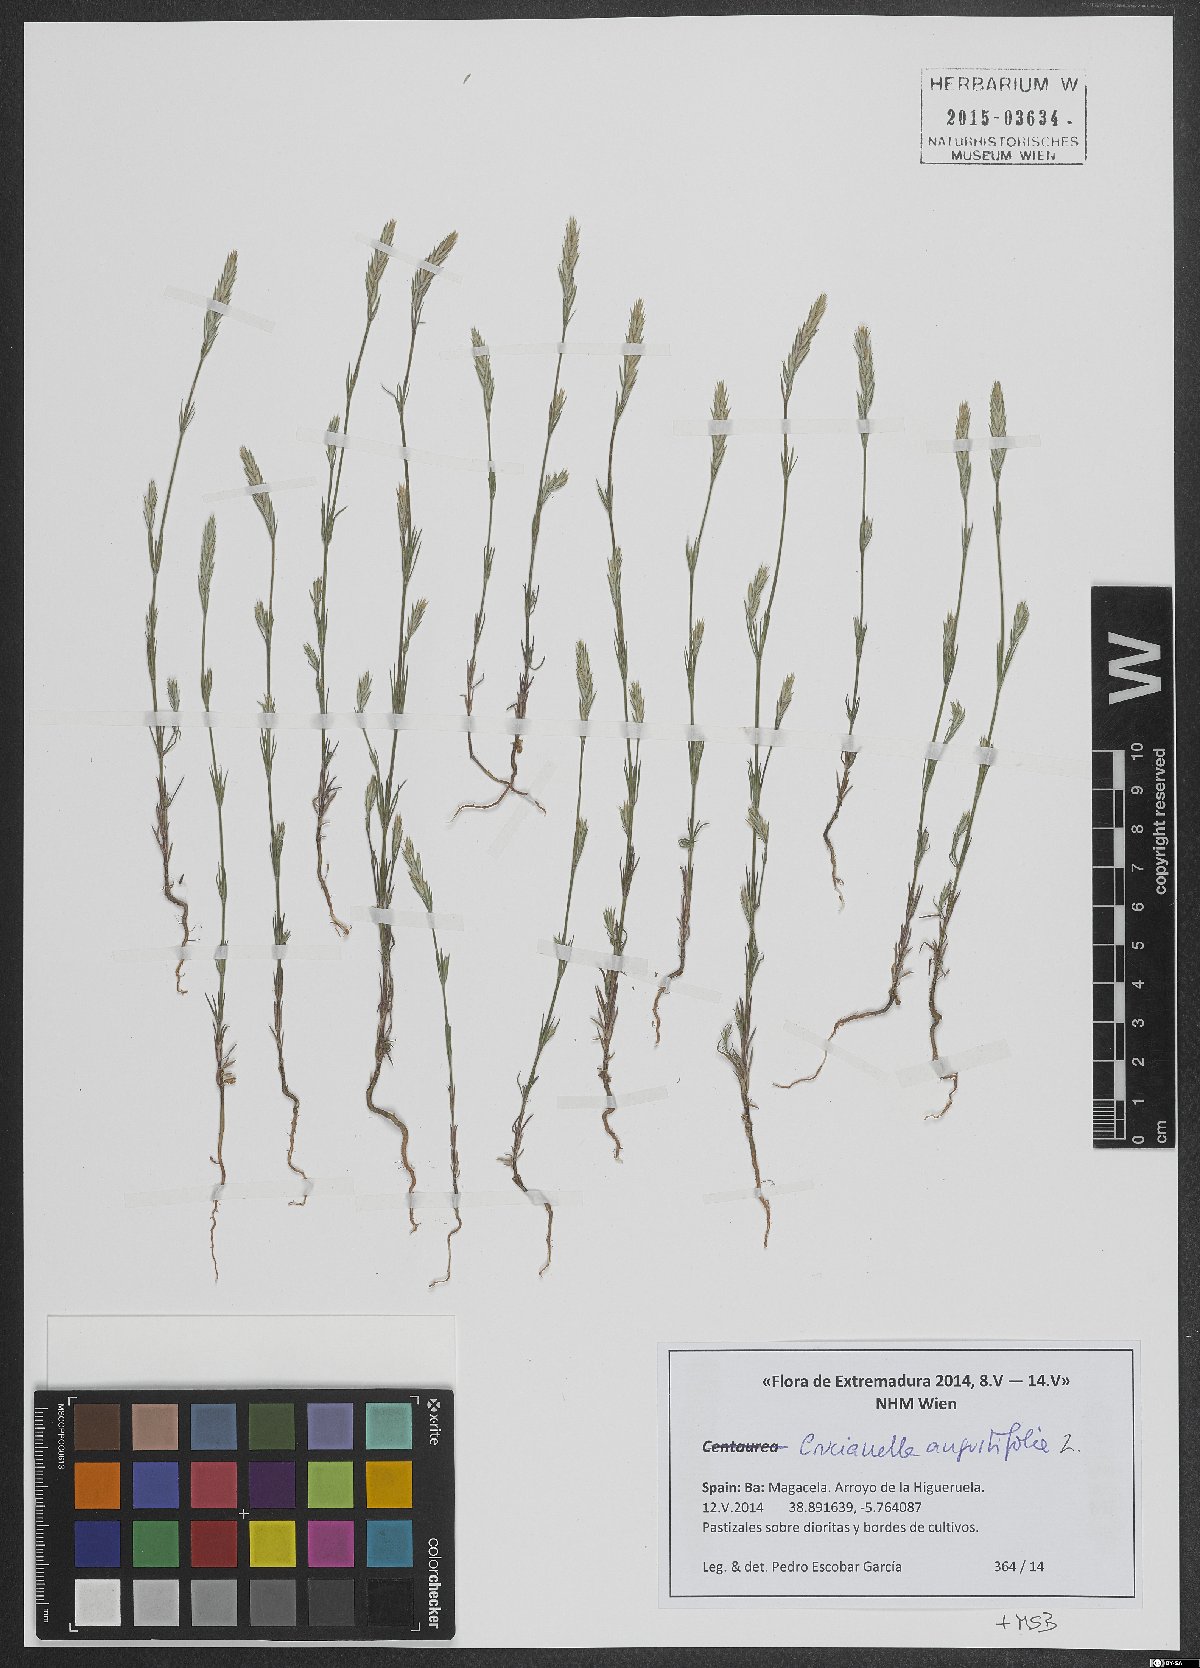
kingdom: Plantae
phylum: Tracheophyta
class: Magnoliopsida
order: Gentianales
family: Rubiaceae
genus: Crucianella
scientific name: Crucianella angustifolia
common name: Narrowleaf crucianella
